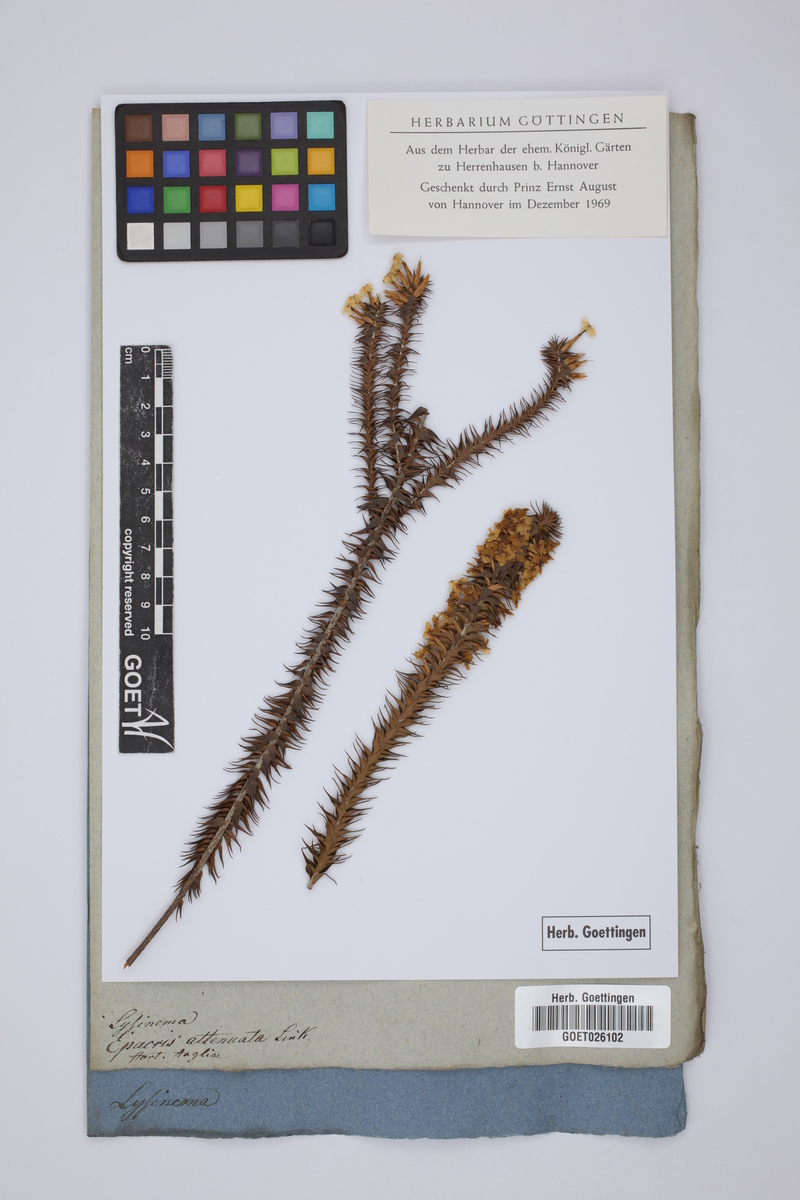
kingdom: Plantae
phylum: Tracheophyta
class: Magnoliopsida
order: Ericales
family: Ericaceae
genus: Woollsia
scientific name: Woollsia pungens
